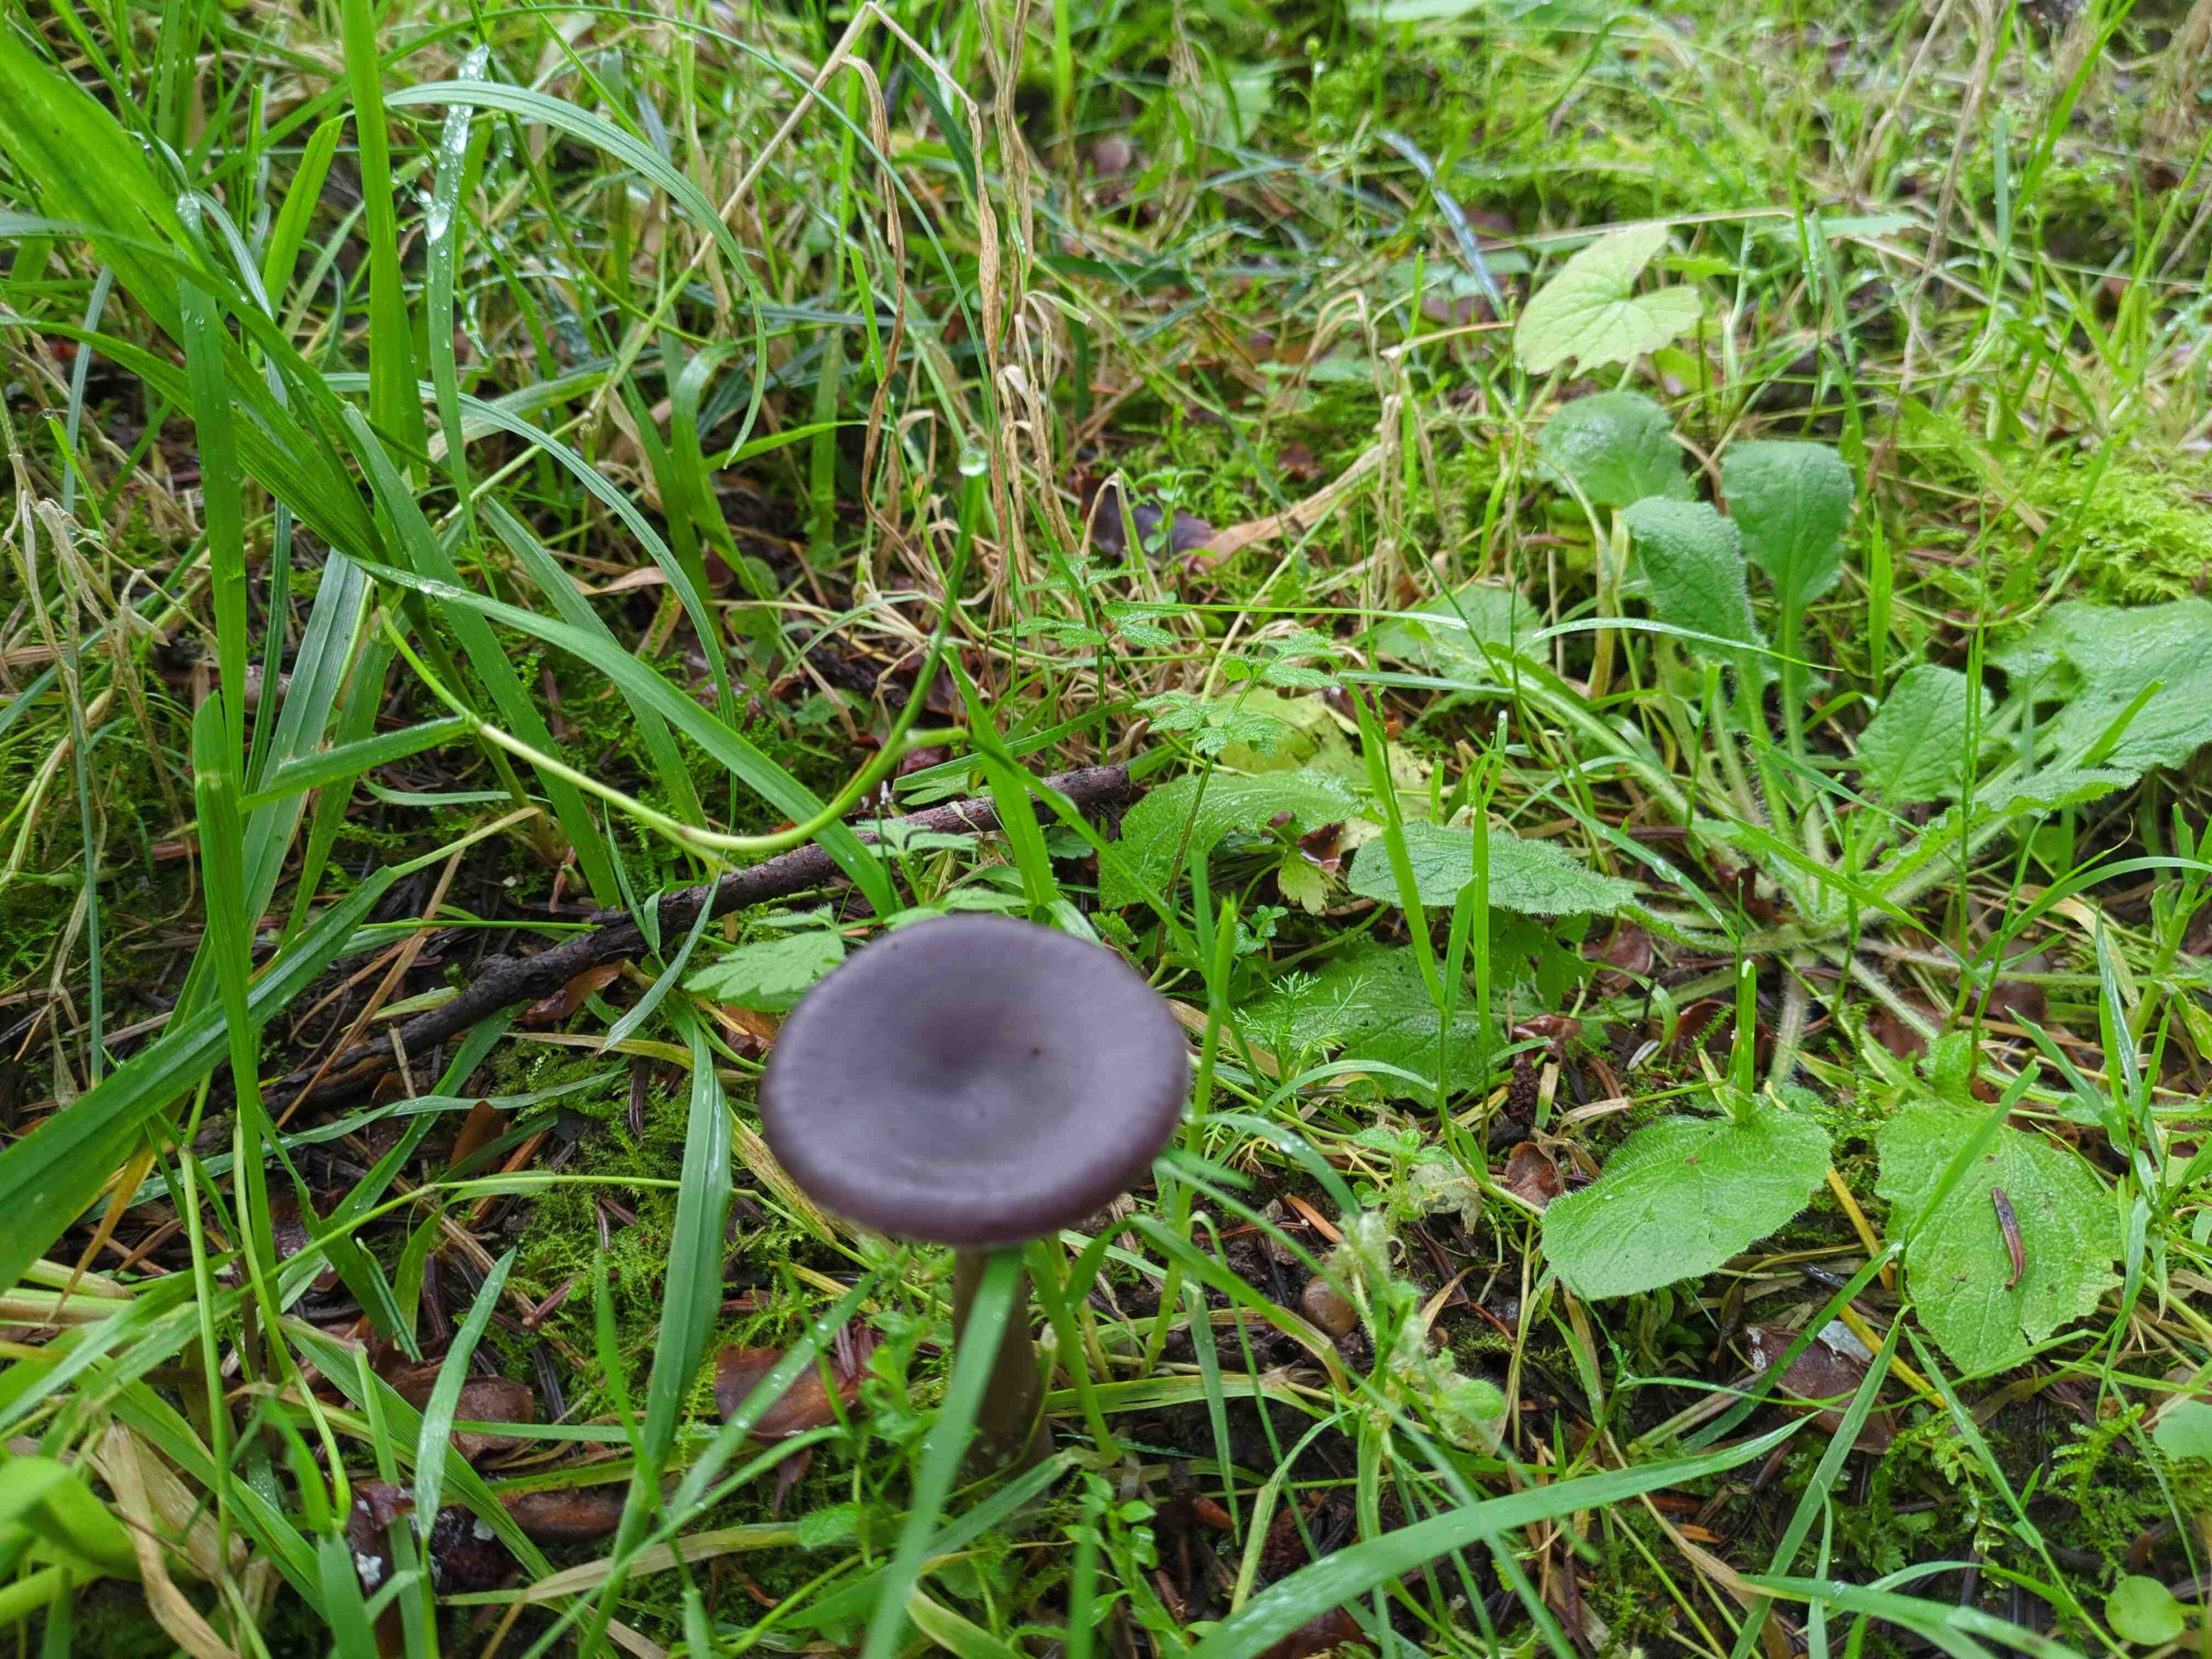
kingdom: Fungi
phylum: Basidiomycota
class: Agaricomycetes
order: Agaricales
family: Pseudoclitocybaceae
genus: Pseudoclitocybe
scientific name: Pseudoclitocybe
